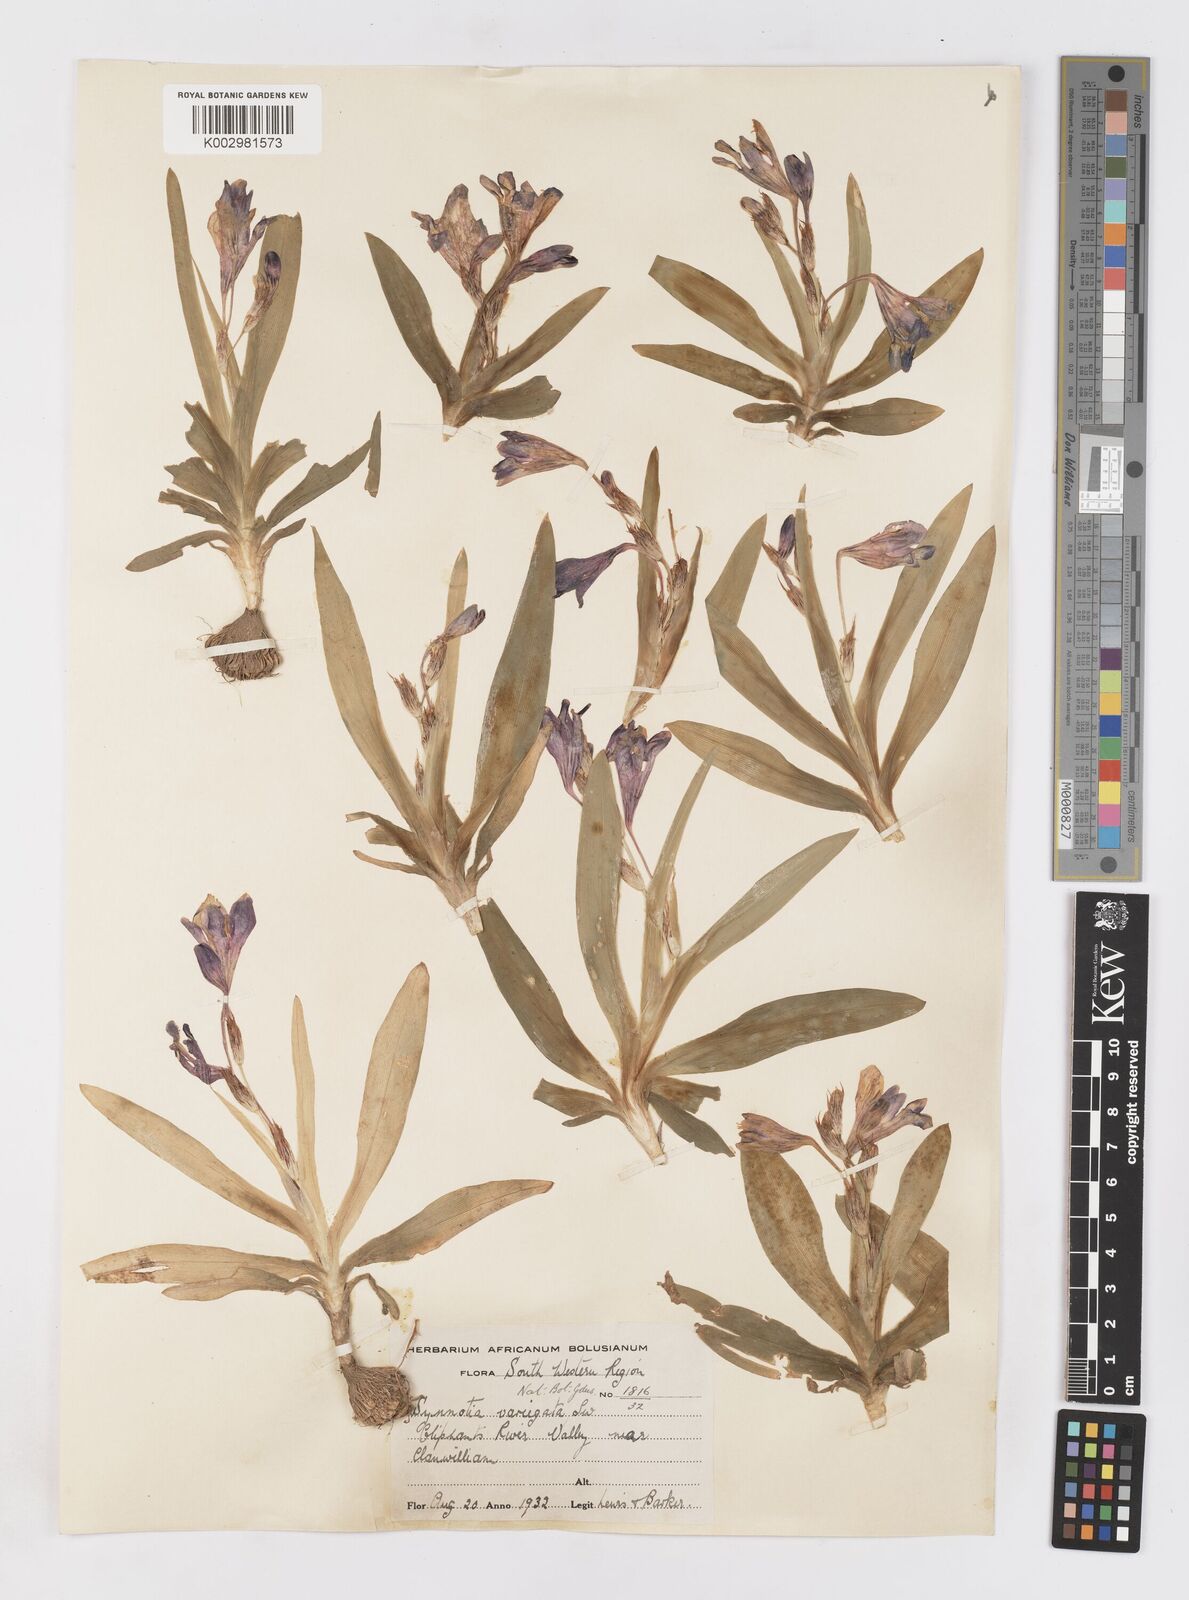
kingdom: Plantae
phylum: Tracheophyta
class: Liliopsida
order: Asparagales
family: Iridaceae
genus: Sparaxis
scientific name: Sparaxis variegata
